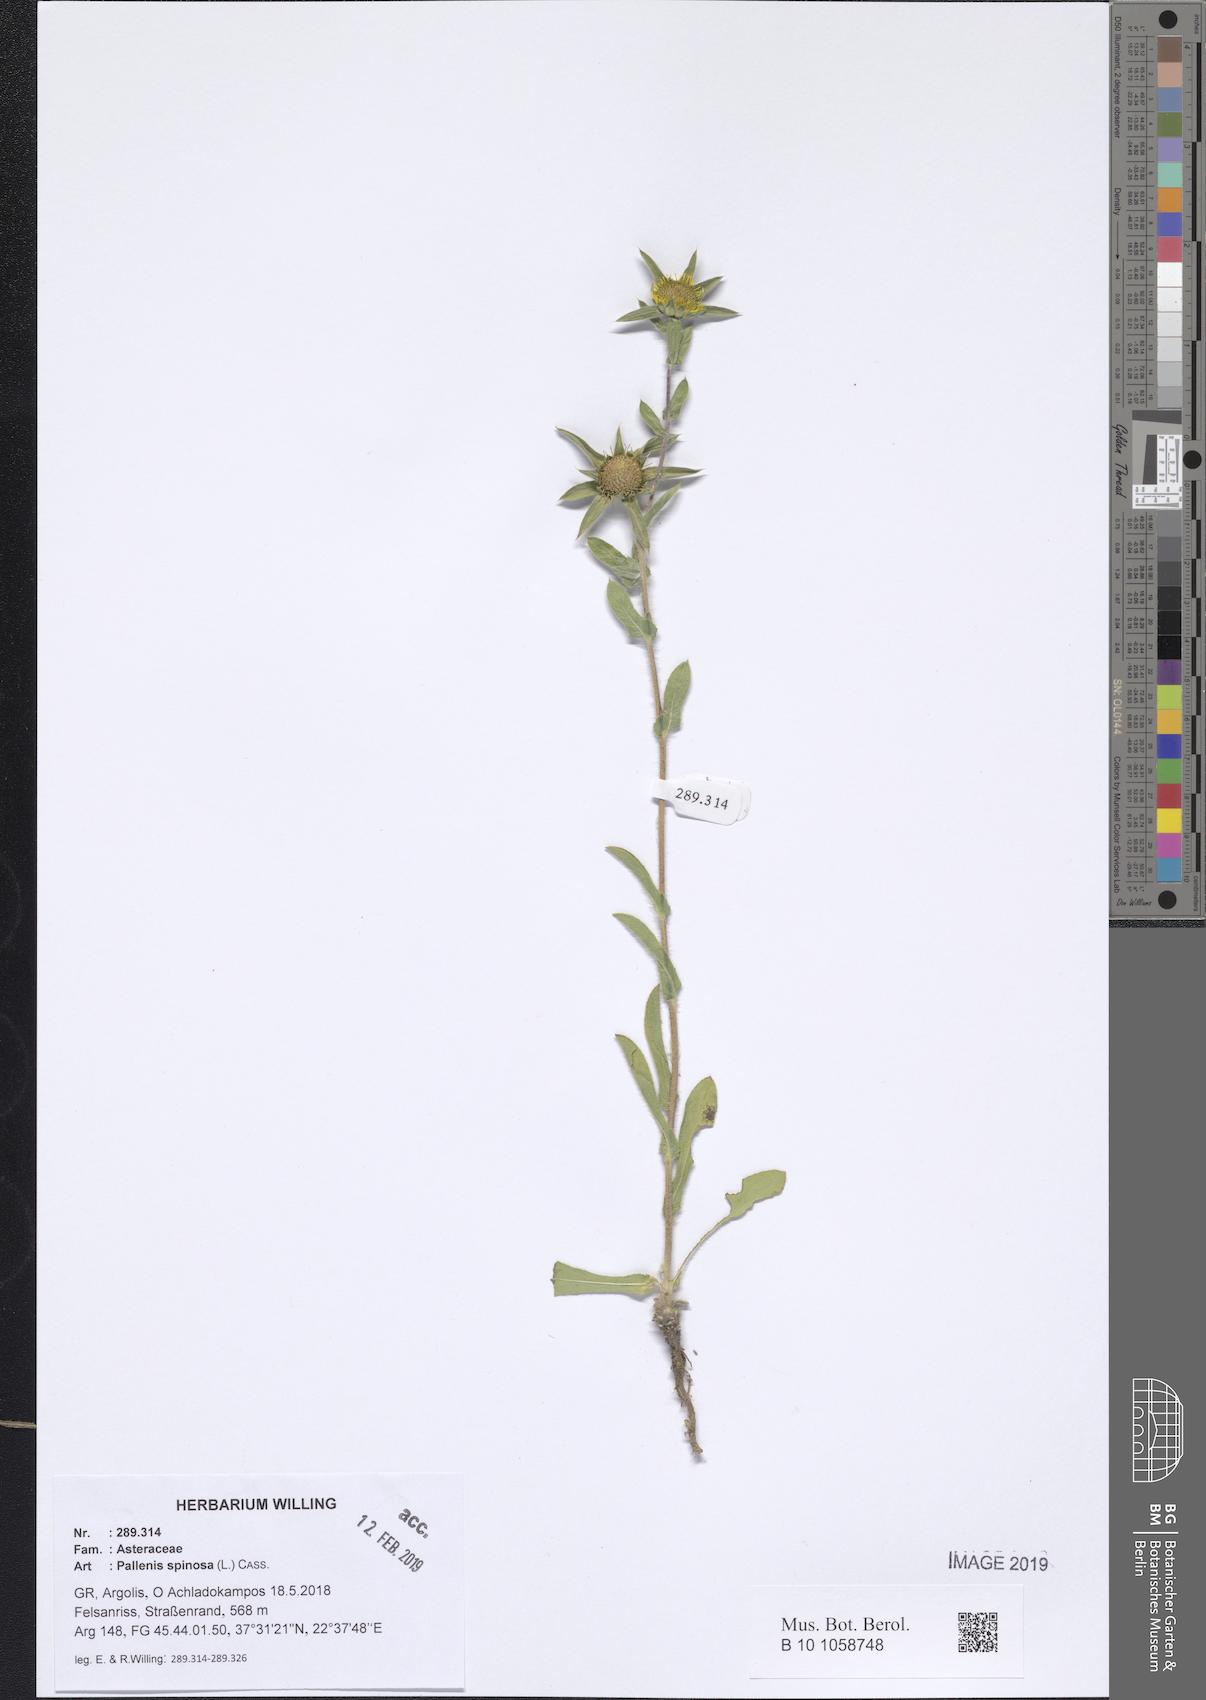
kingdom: Plantae
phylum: Tracheophyta
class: Magnoliopsida
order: Asterales
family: Asteraceae
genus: Pallenis
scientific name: Pallenis spinosa
